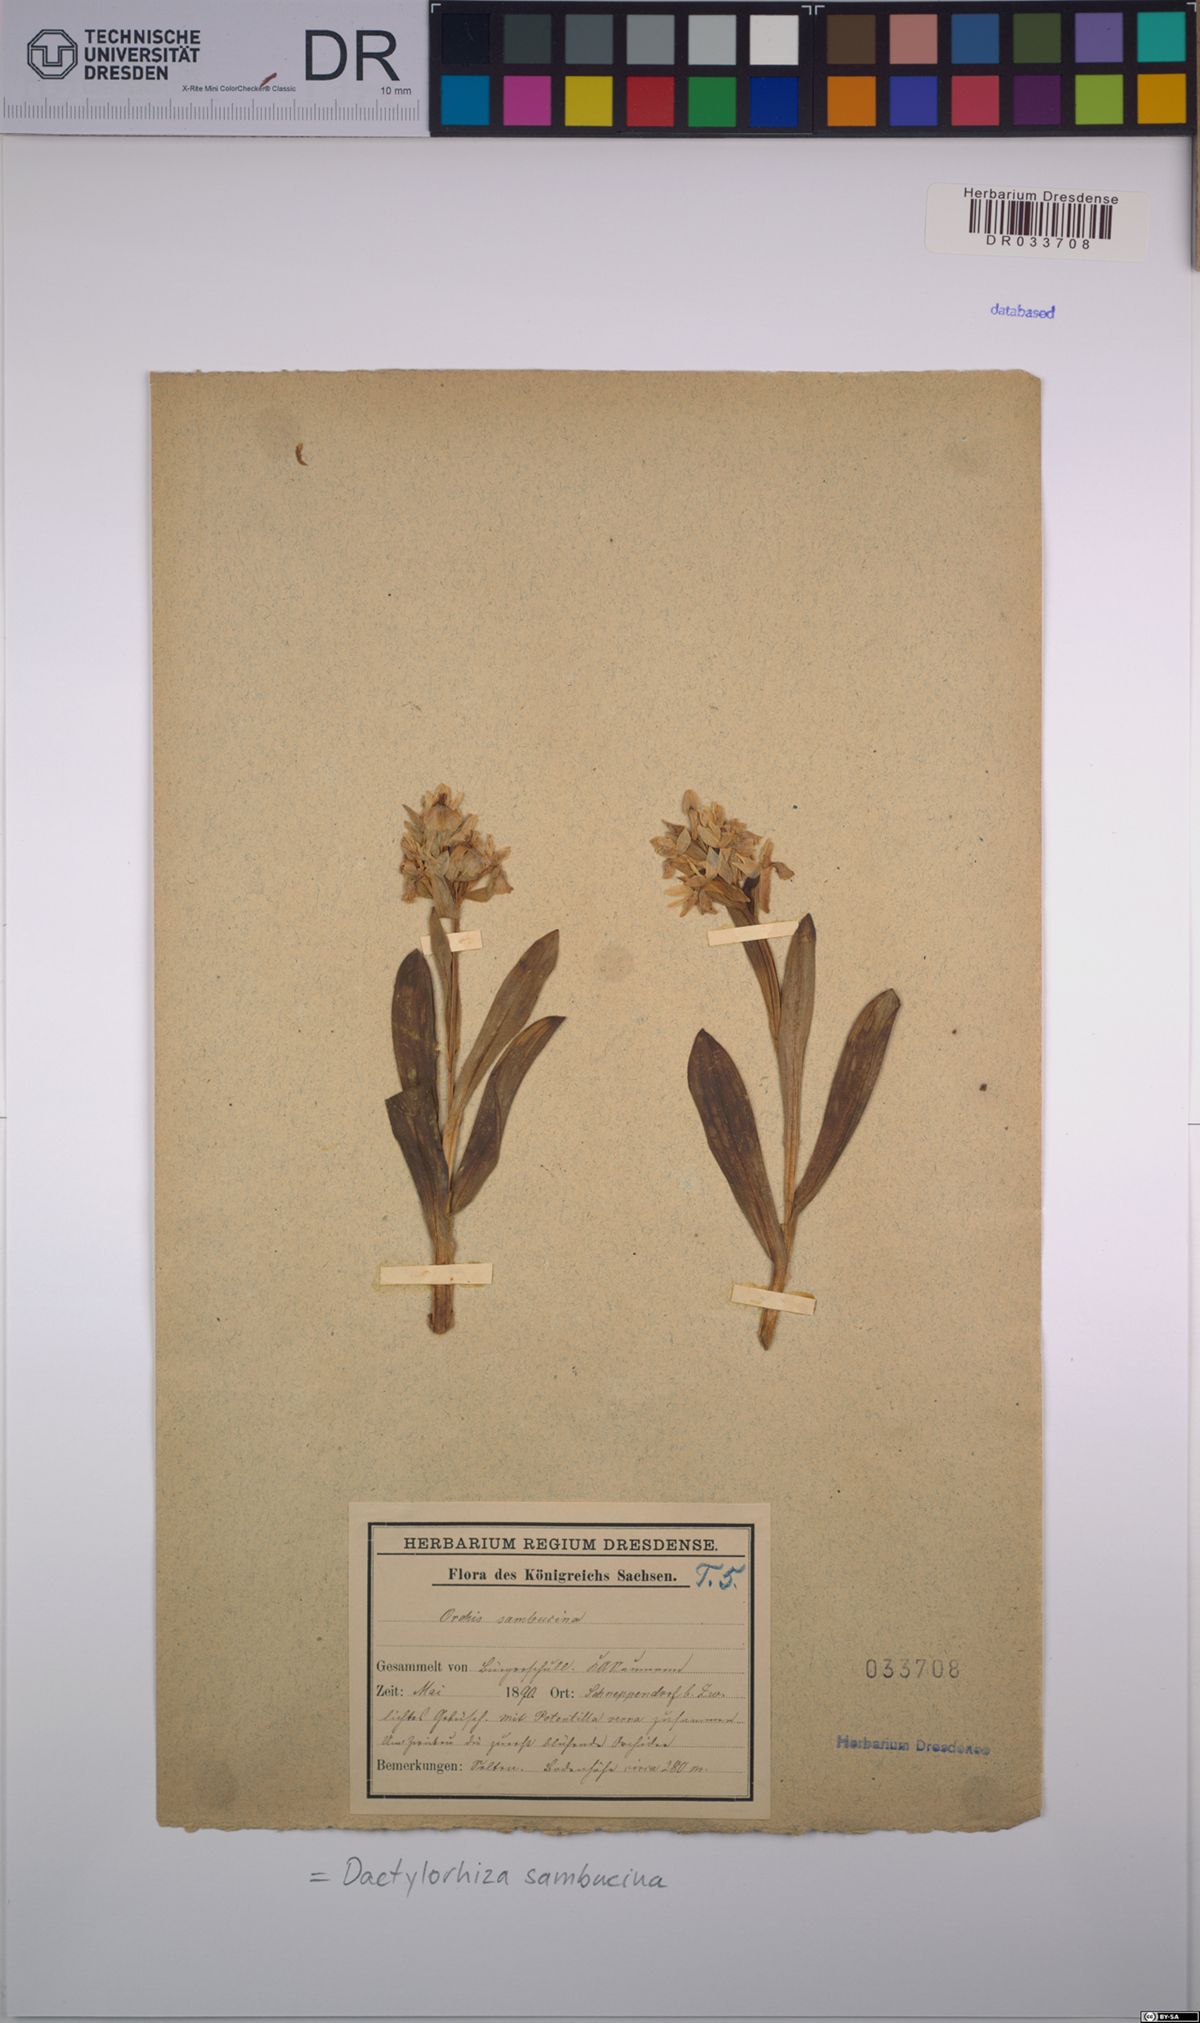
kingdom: Plantae
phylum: Tracheophyta
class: Liliopsida
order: Asparagales
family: Orchidaceae
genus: Dactylorhiza
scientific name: Dactylorhiza sambucina
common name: Elder-flowered orchid
